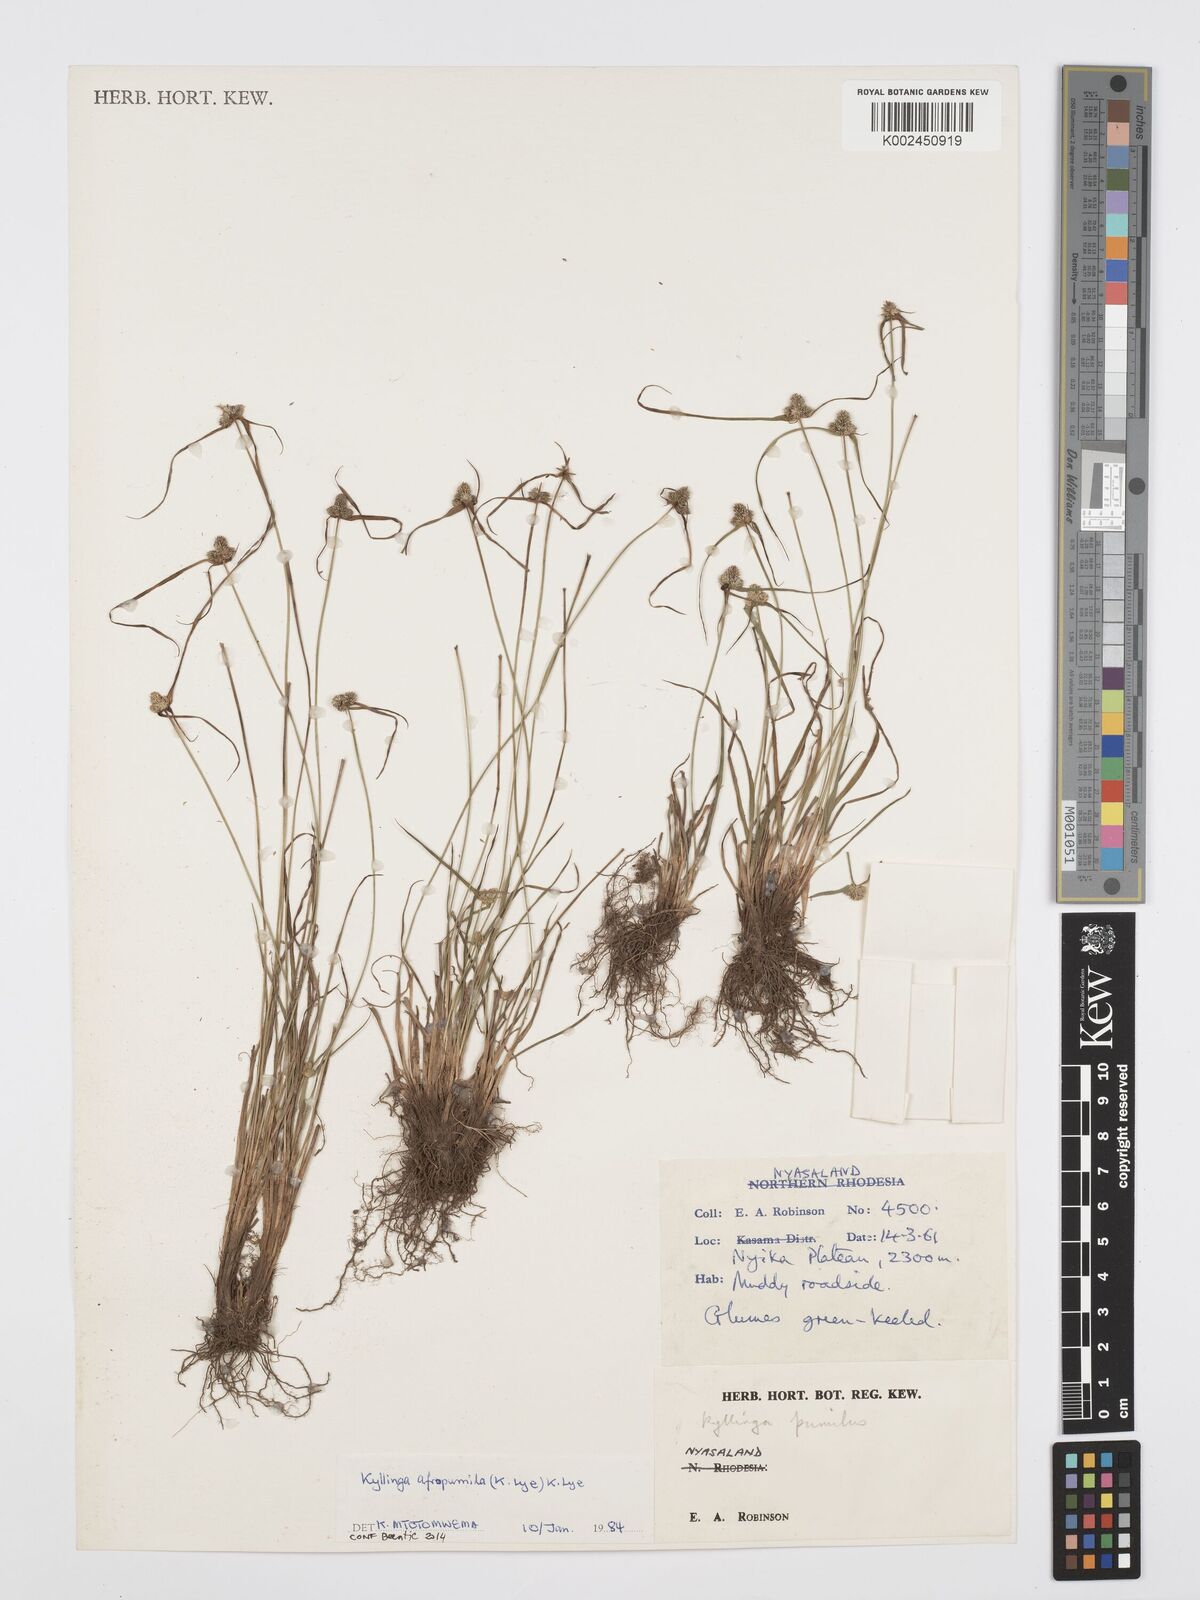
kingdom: Plantae
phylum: Tracheophyta
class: Liliopsida
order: Poales
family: Cyperaceae
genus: Cyperus
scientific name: Cyperus afropumilus
